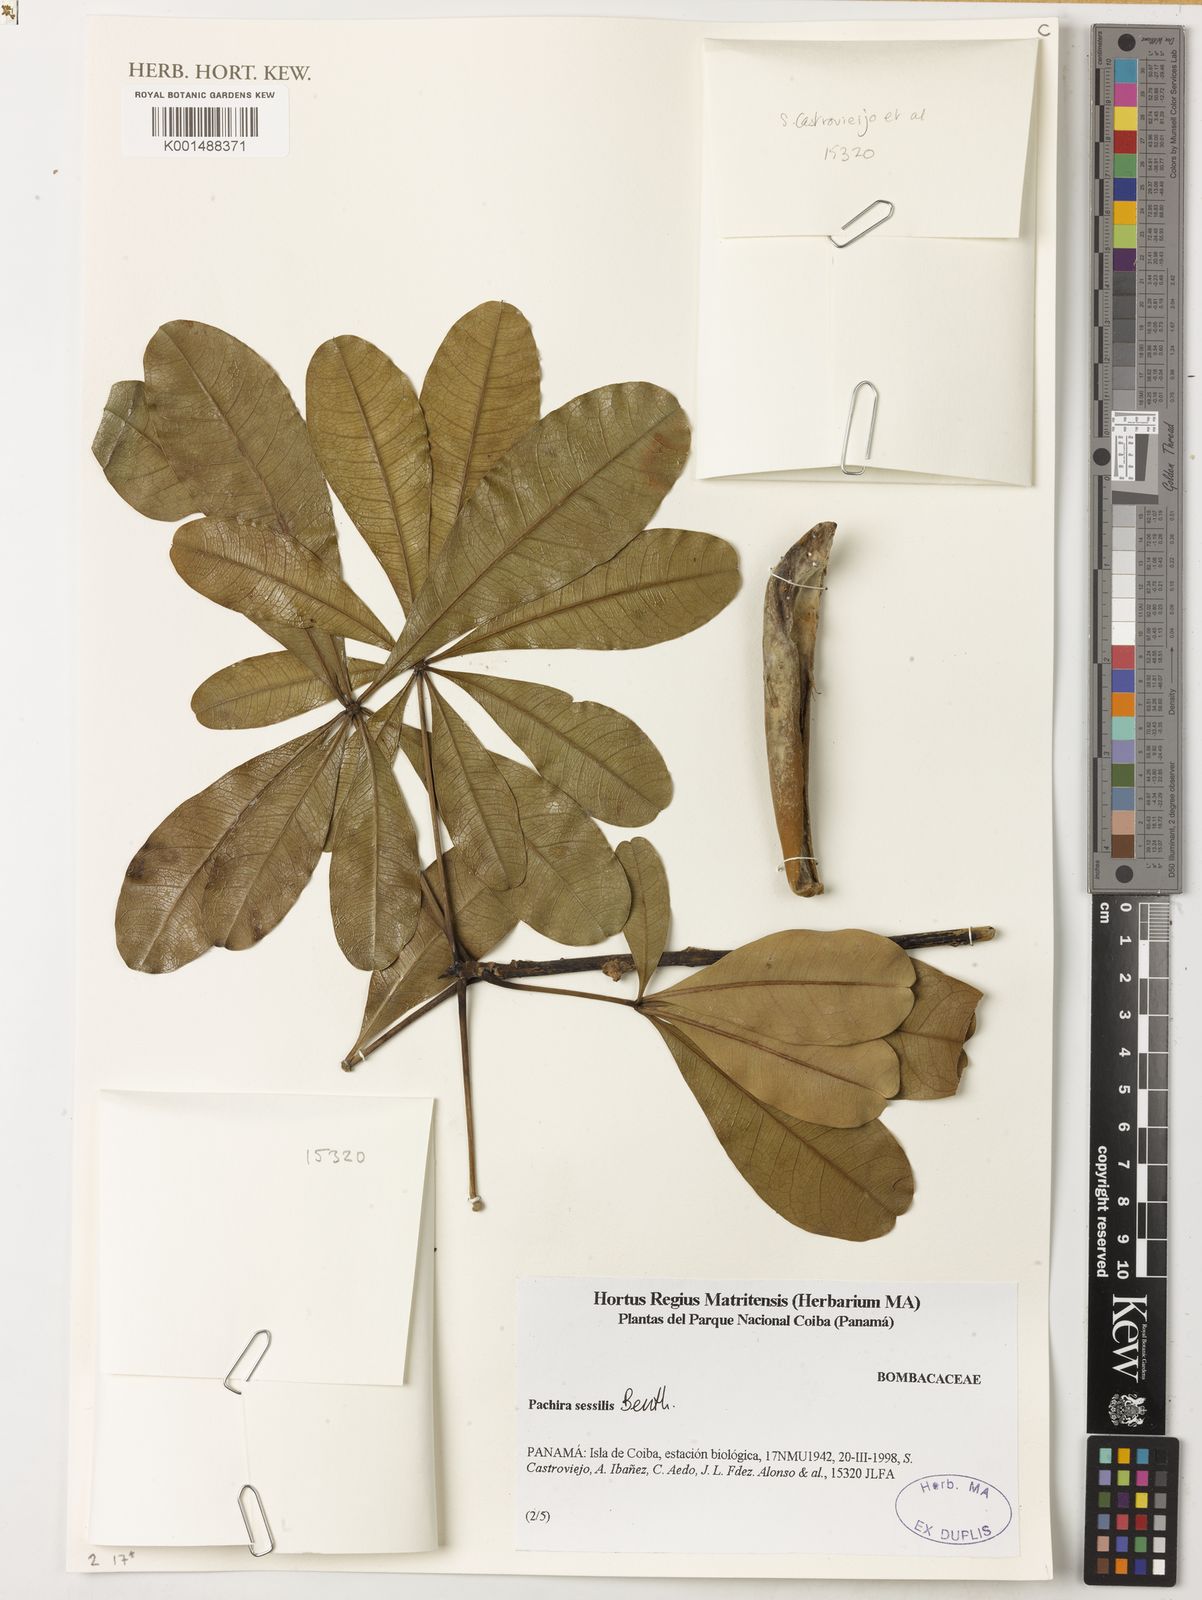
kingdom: Plantae
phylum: Tracheophyta
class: Magnoliopsida
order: Malvales
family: Malvaceae
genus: Pachira
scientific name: Pachira sessilis
